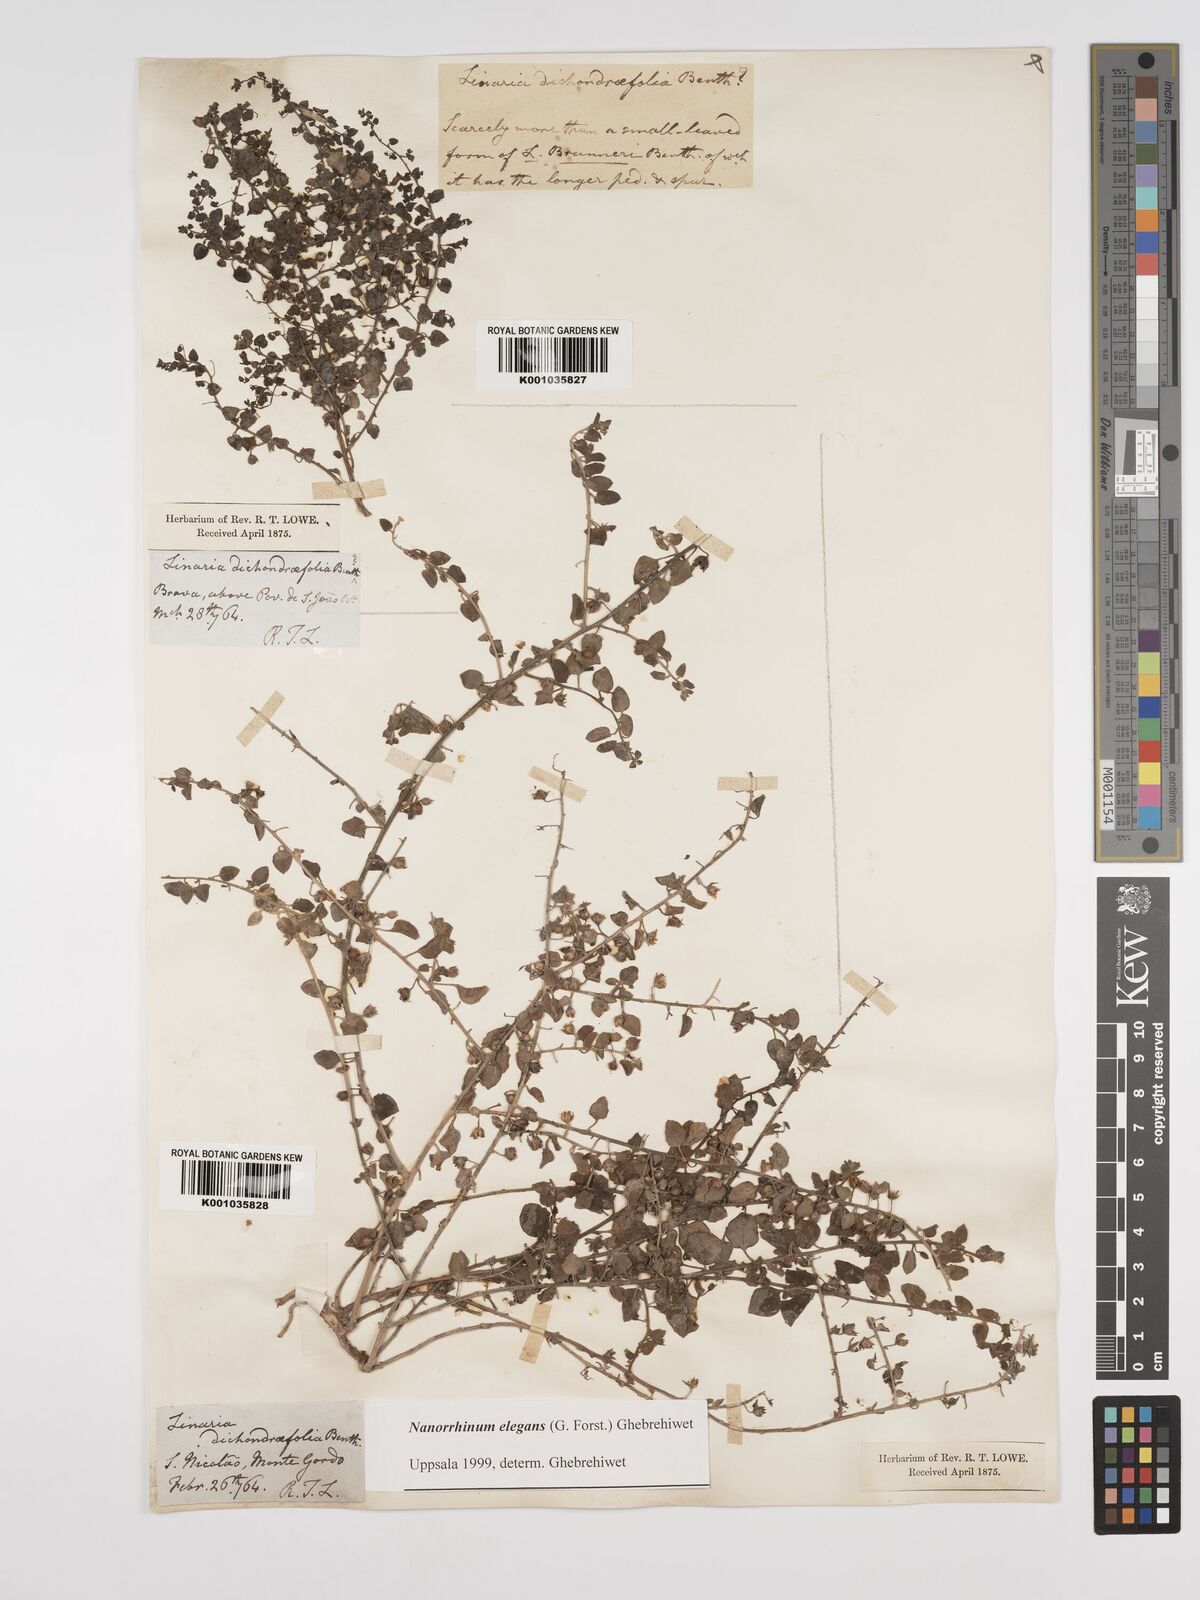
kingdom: Plantae
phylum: Tracheophyta
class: Magnoliopsida
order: Lamiales
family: Plantaginaceae
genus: Nanorrhinum
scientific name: Nanorrhinum dichondrifolium
